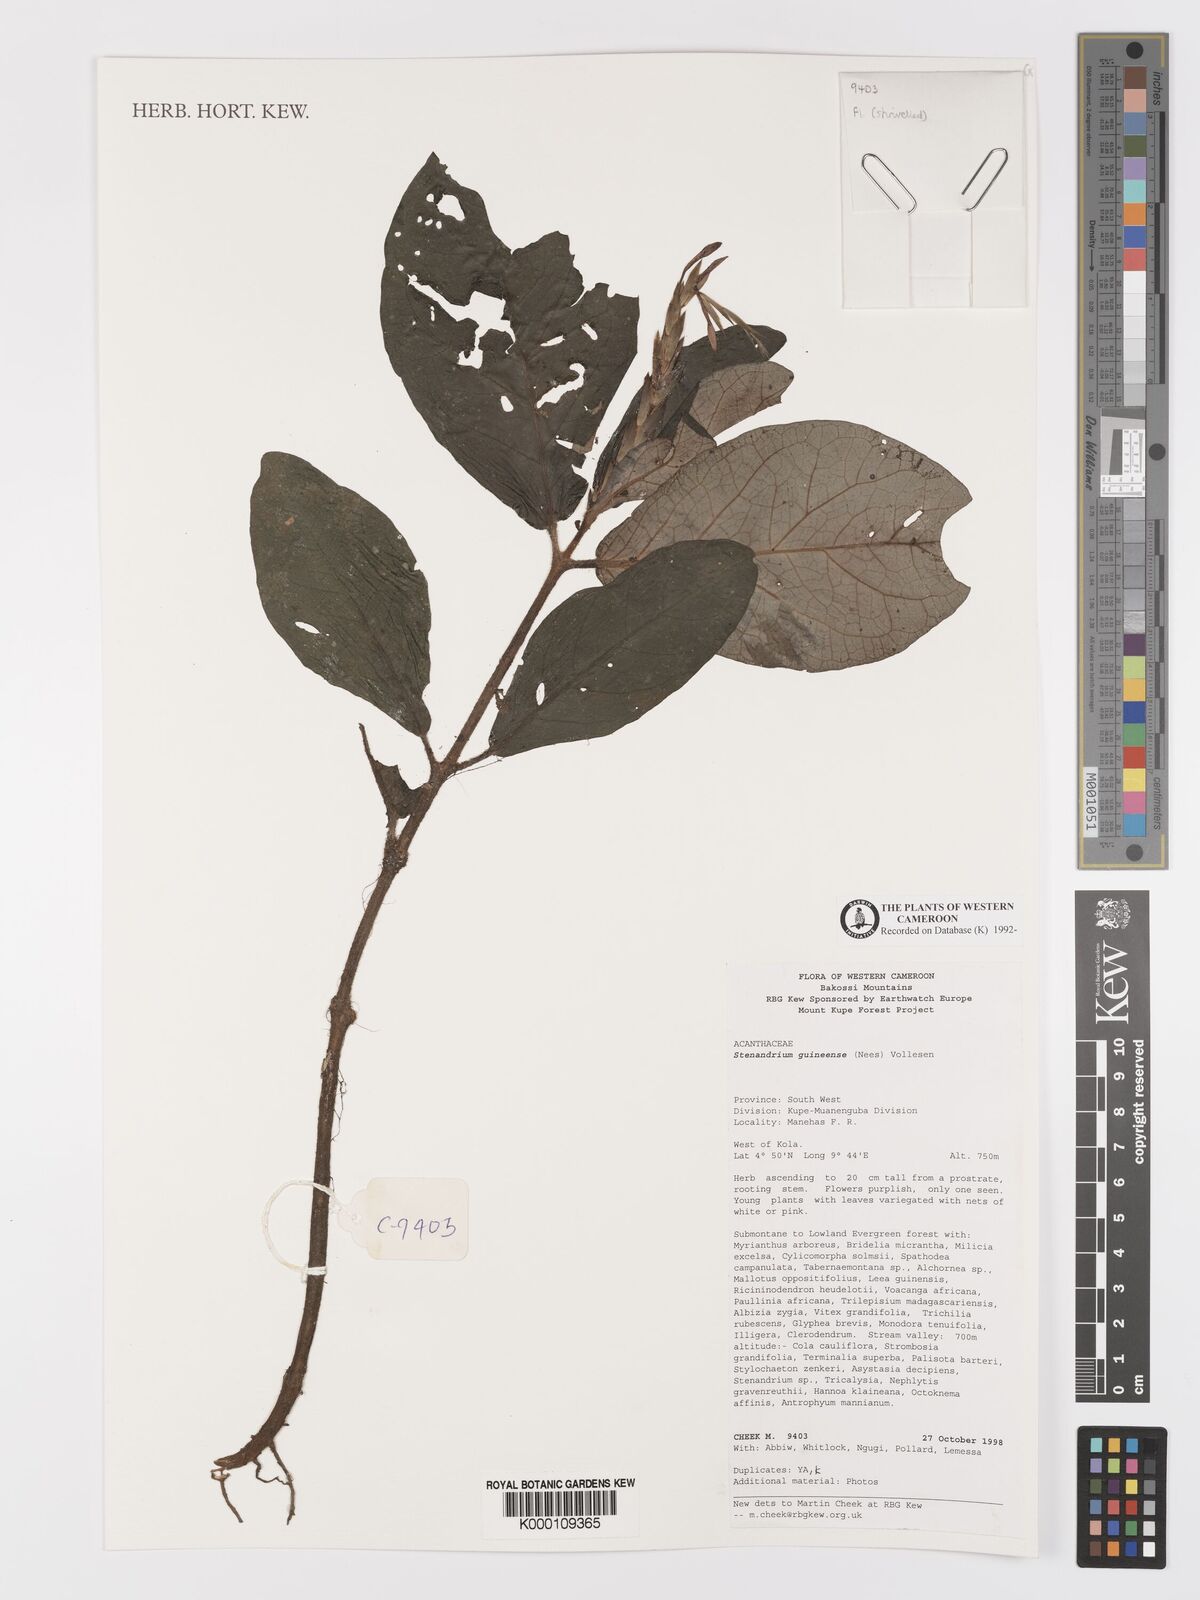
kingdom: Plantae
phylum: Tracheophyta
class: Magnoliopsida
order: Lamiales
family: Acanthaceae
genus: Stenandriopsis
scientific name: Stenandriopsis guineensis
